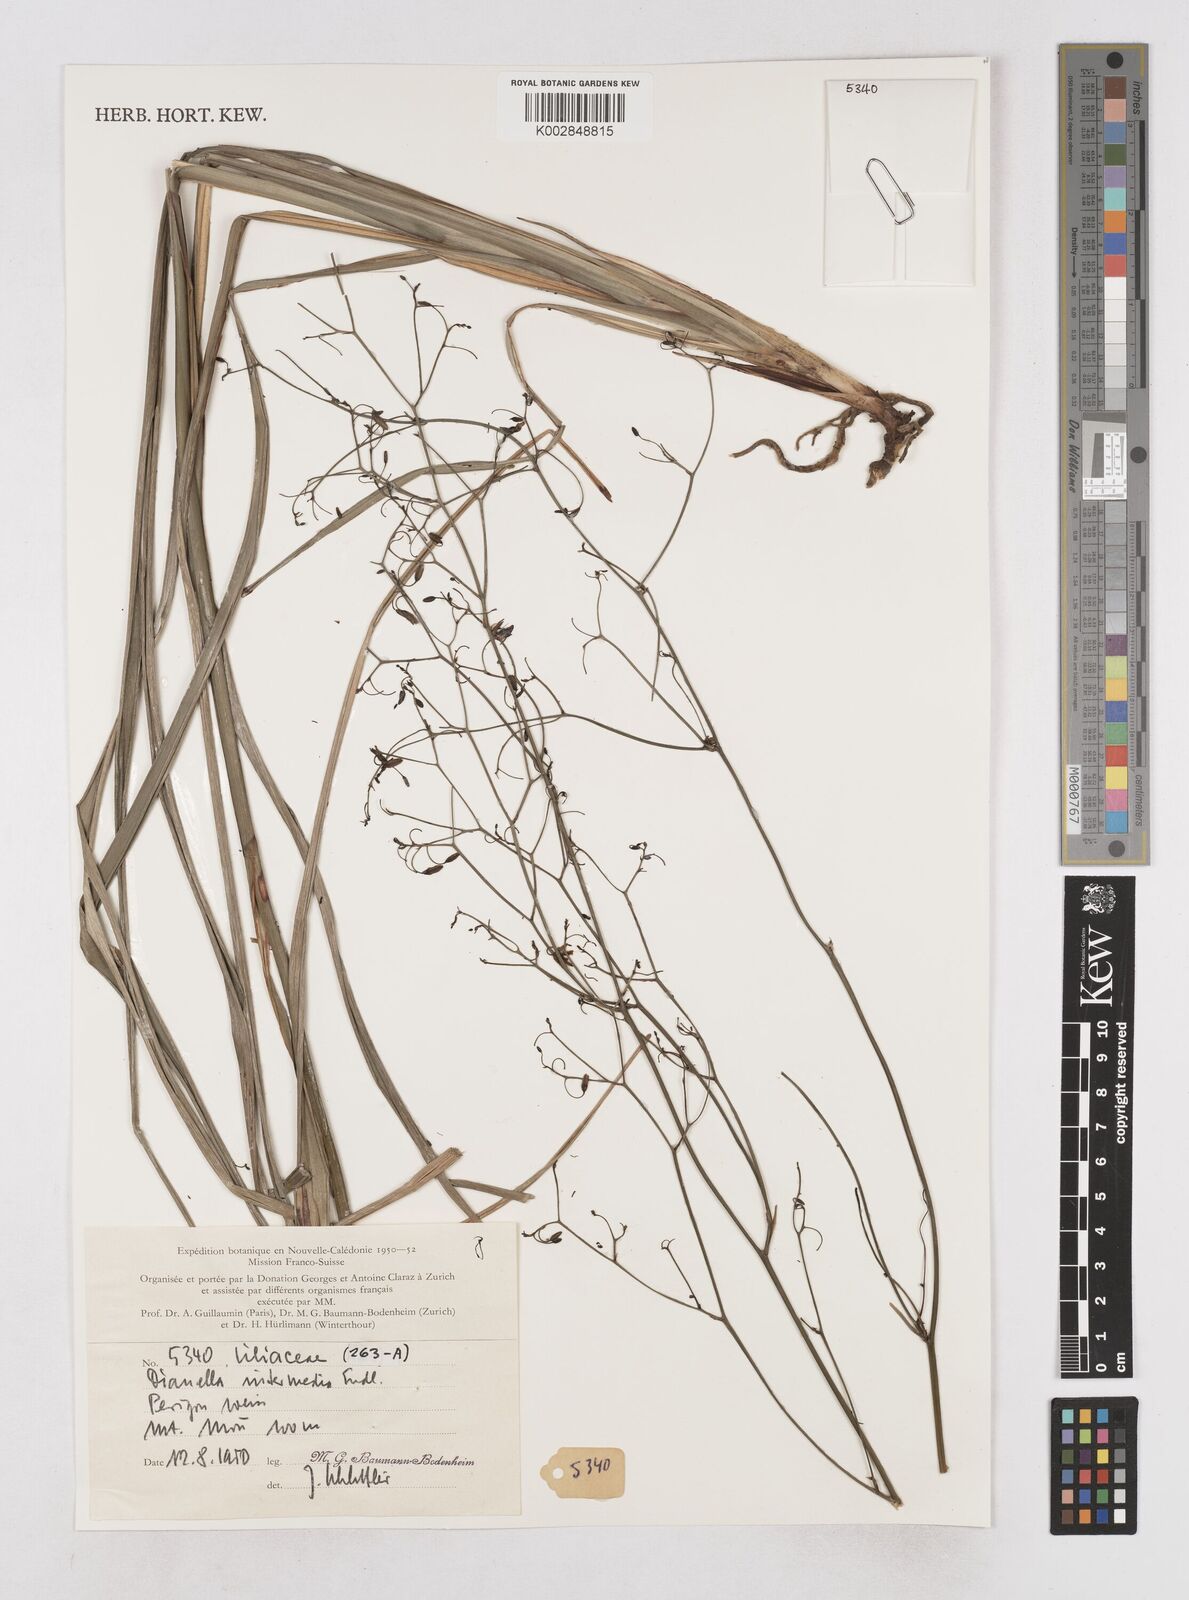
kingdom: Plantae
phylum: Tracheophyta
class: Liliopsida
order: Asparagales
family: Asphodelaceae
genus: Dianella
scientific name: Dianella intermedia
